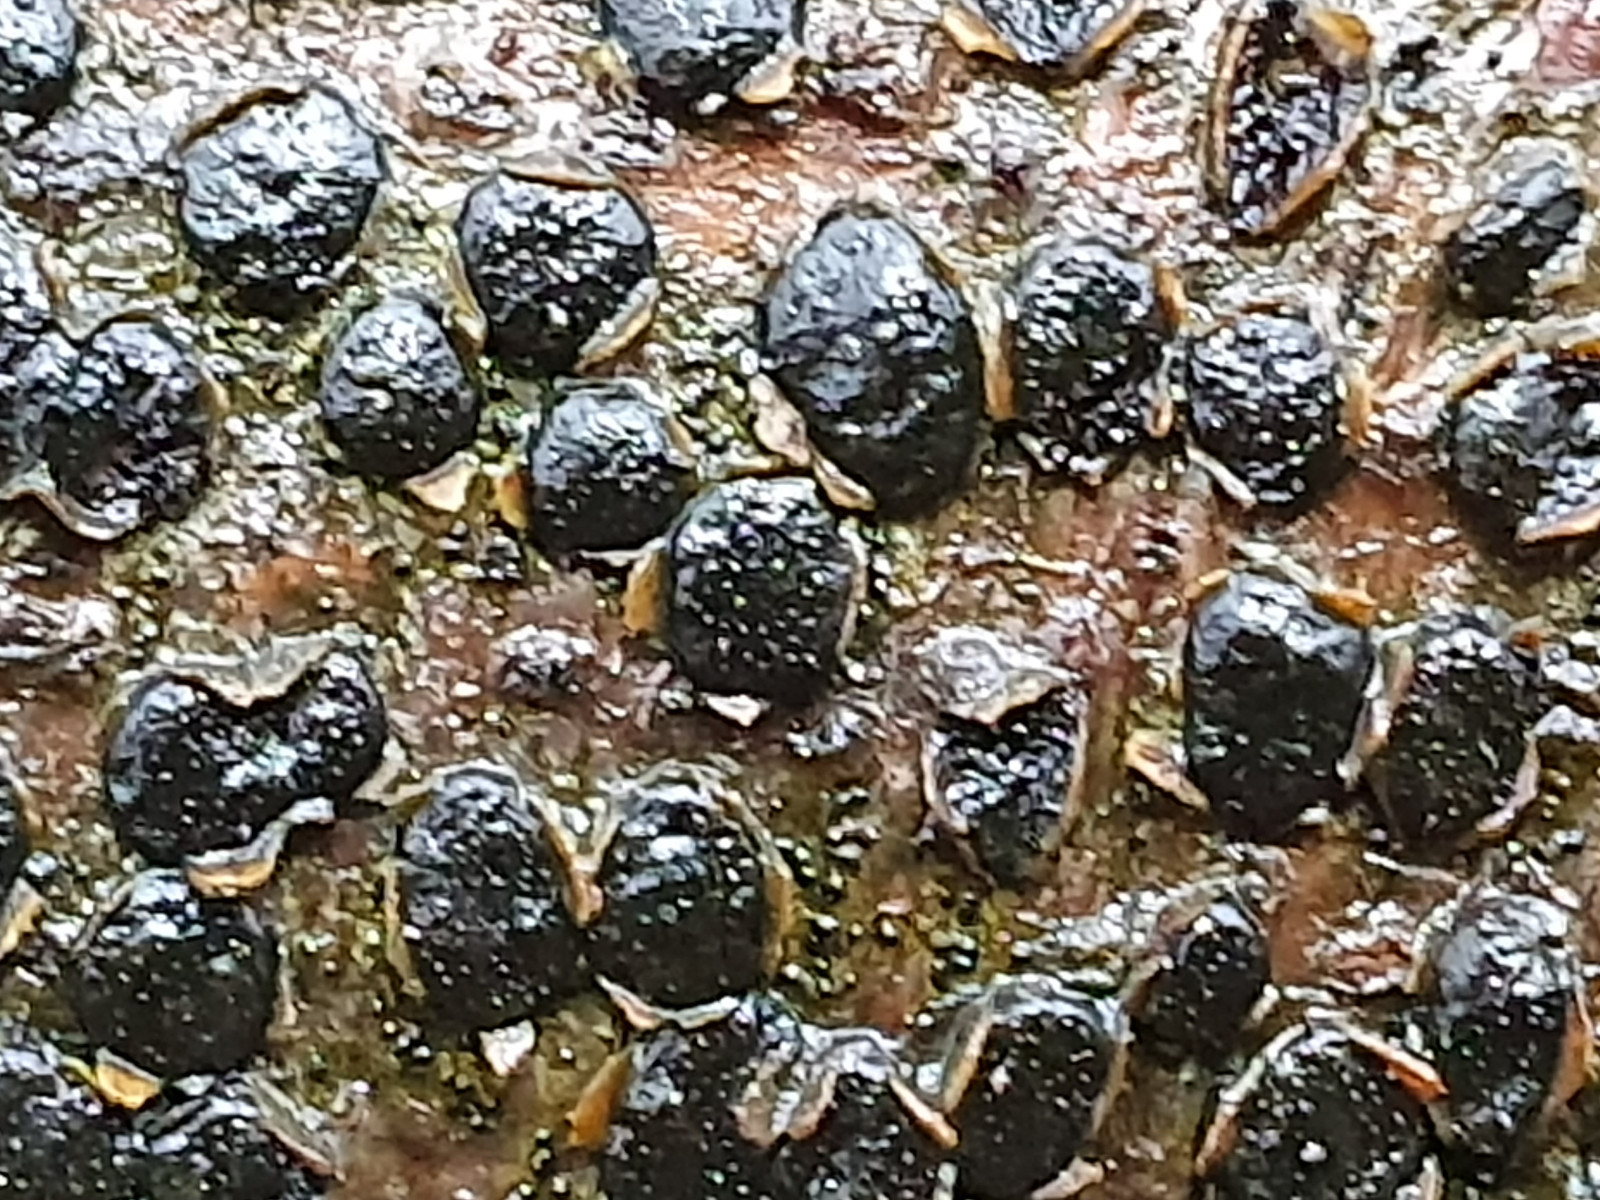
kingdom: Fungi
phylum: Ascomycota
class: Sordariomycetes
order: Xylariales
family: Diatrypaceae
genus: Diatrype
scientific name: Diatrype disciformis
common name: kant-kulskorpe
